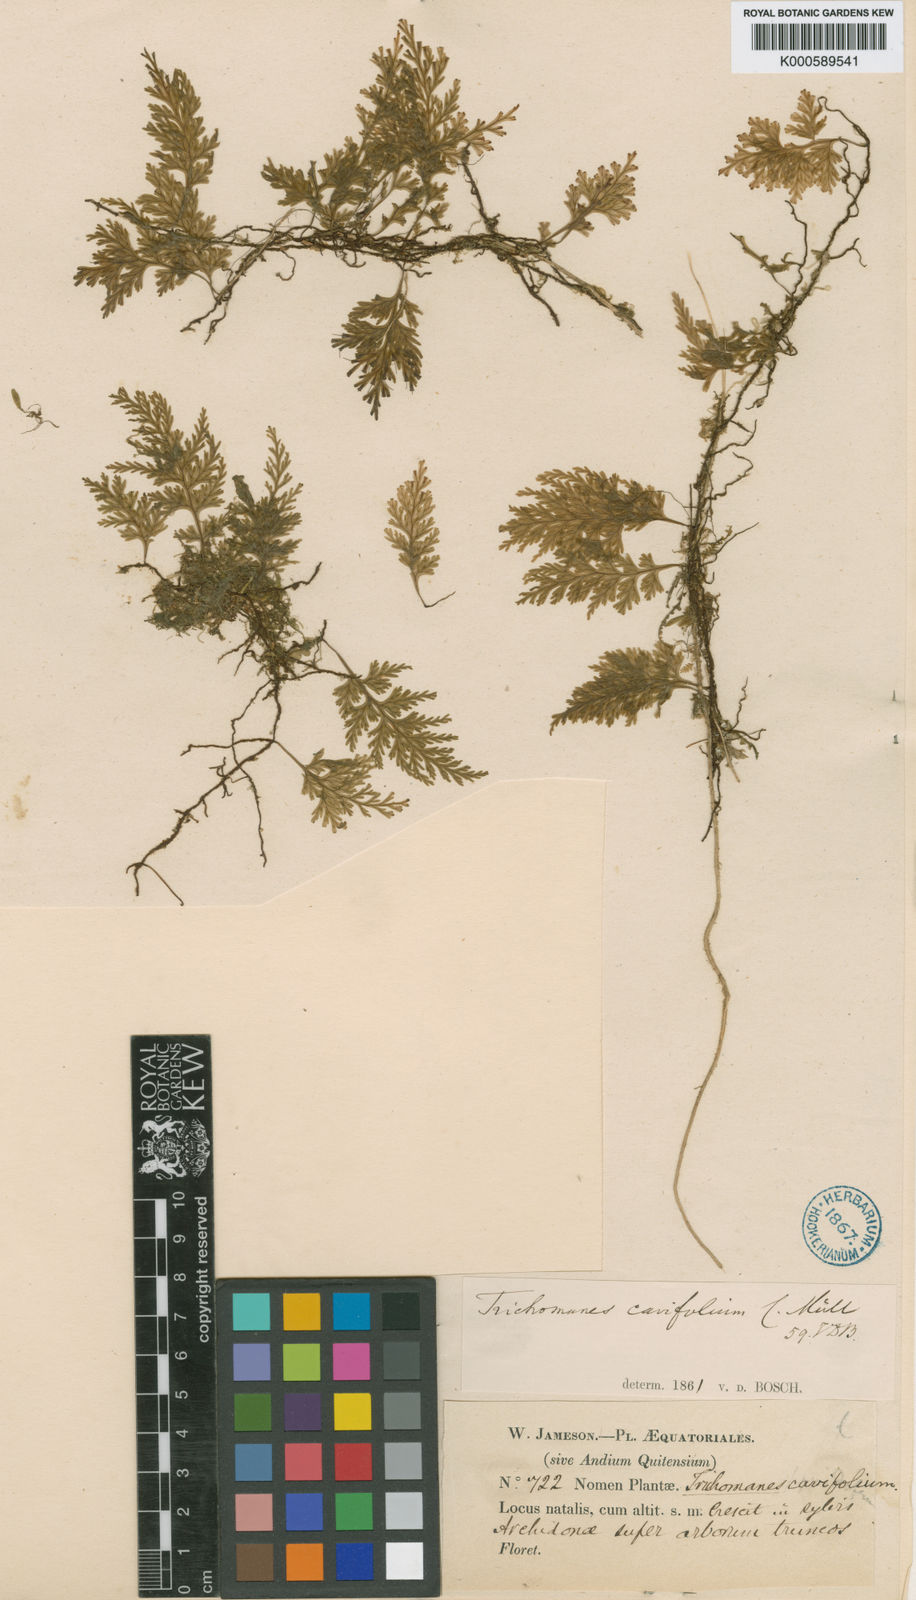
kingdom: Plantae
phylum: Tracheophyta
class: Polypodiopsida
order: Hymenophyllales
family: Hymenophyllaceae
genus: Polyphlebium
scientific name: Polyphlebium pyxidiferum
